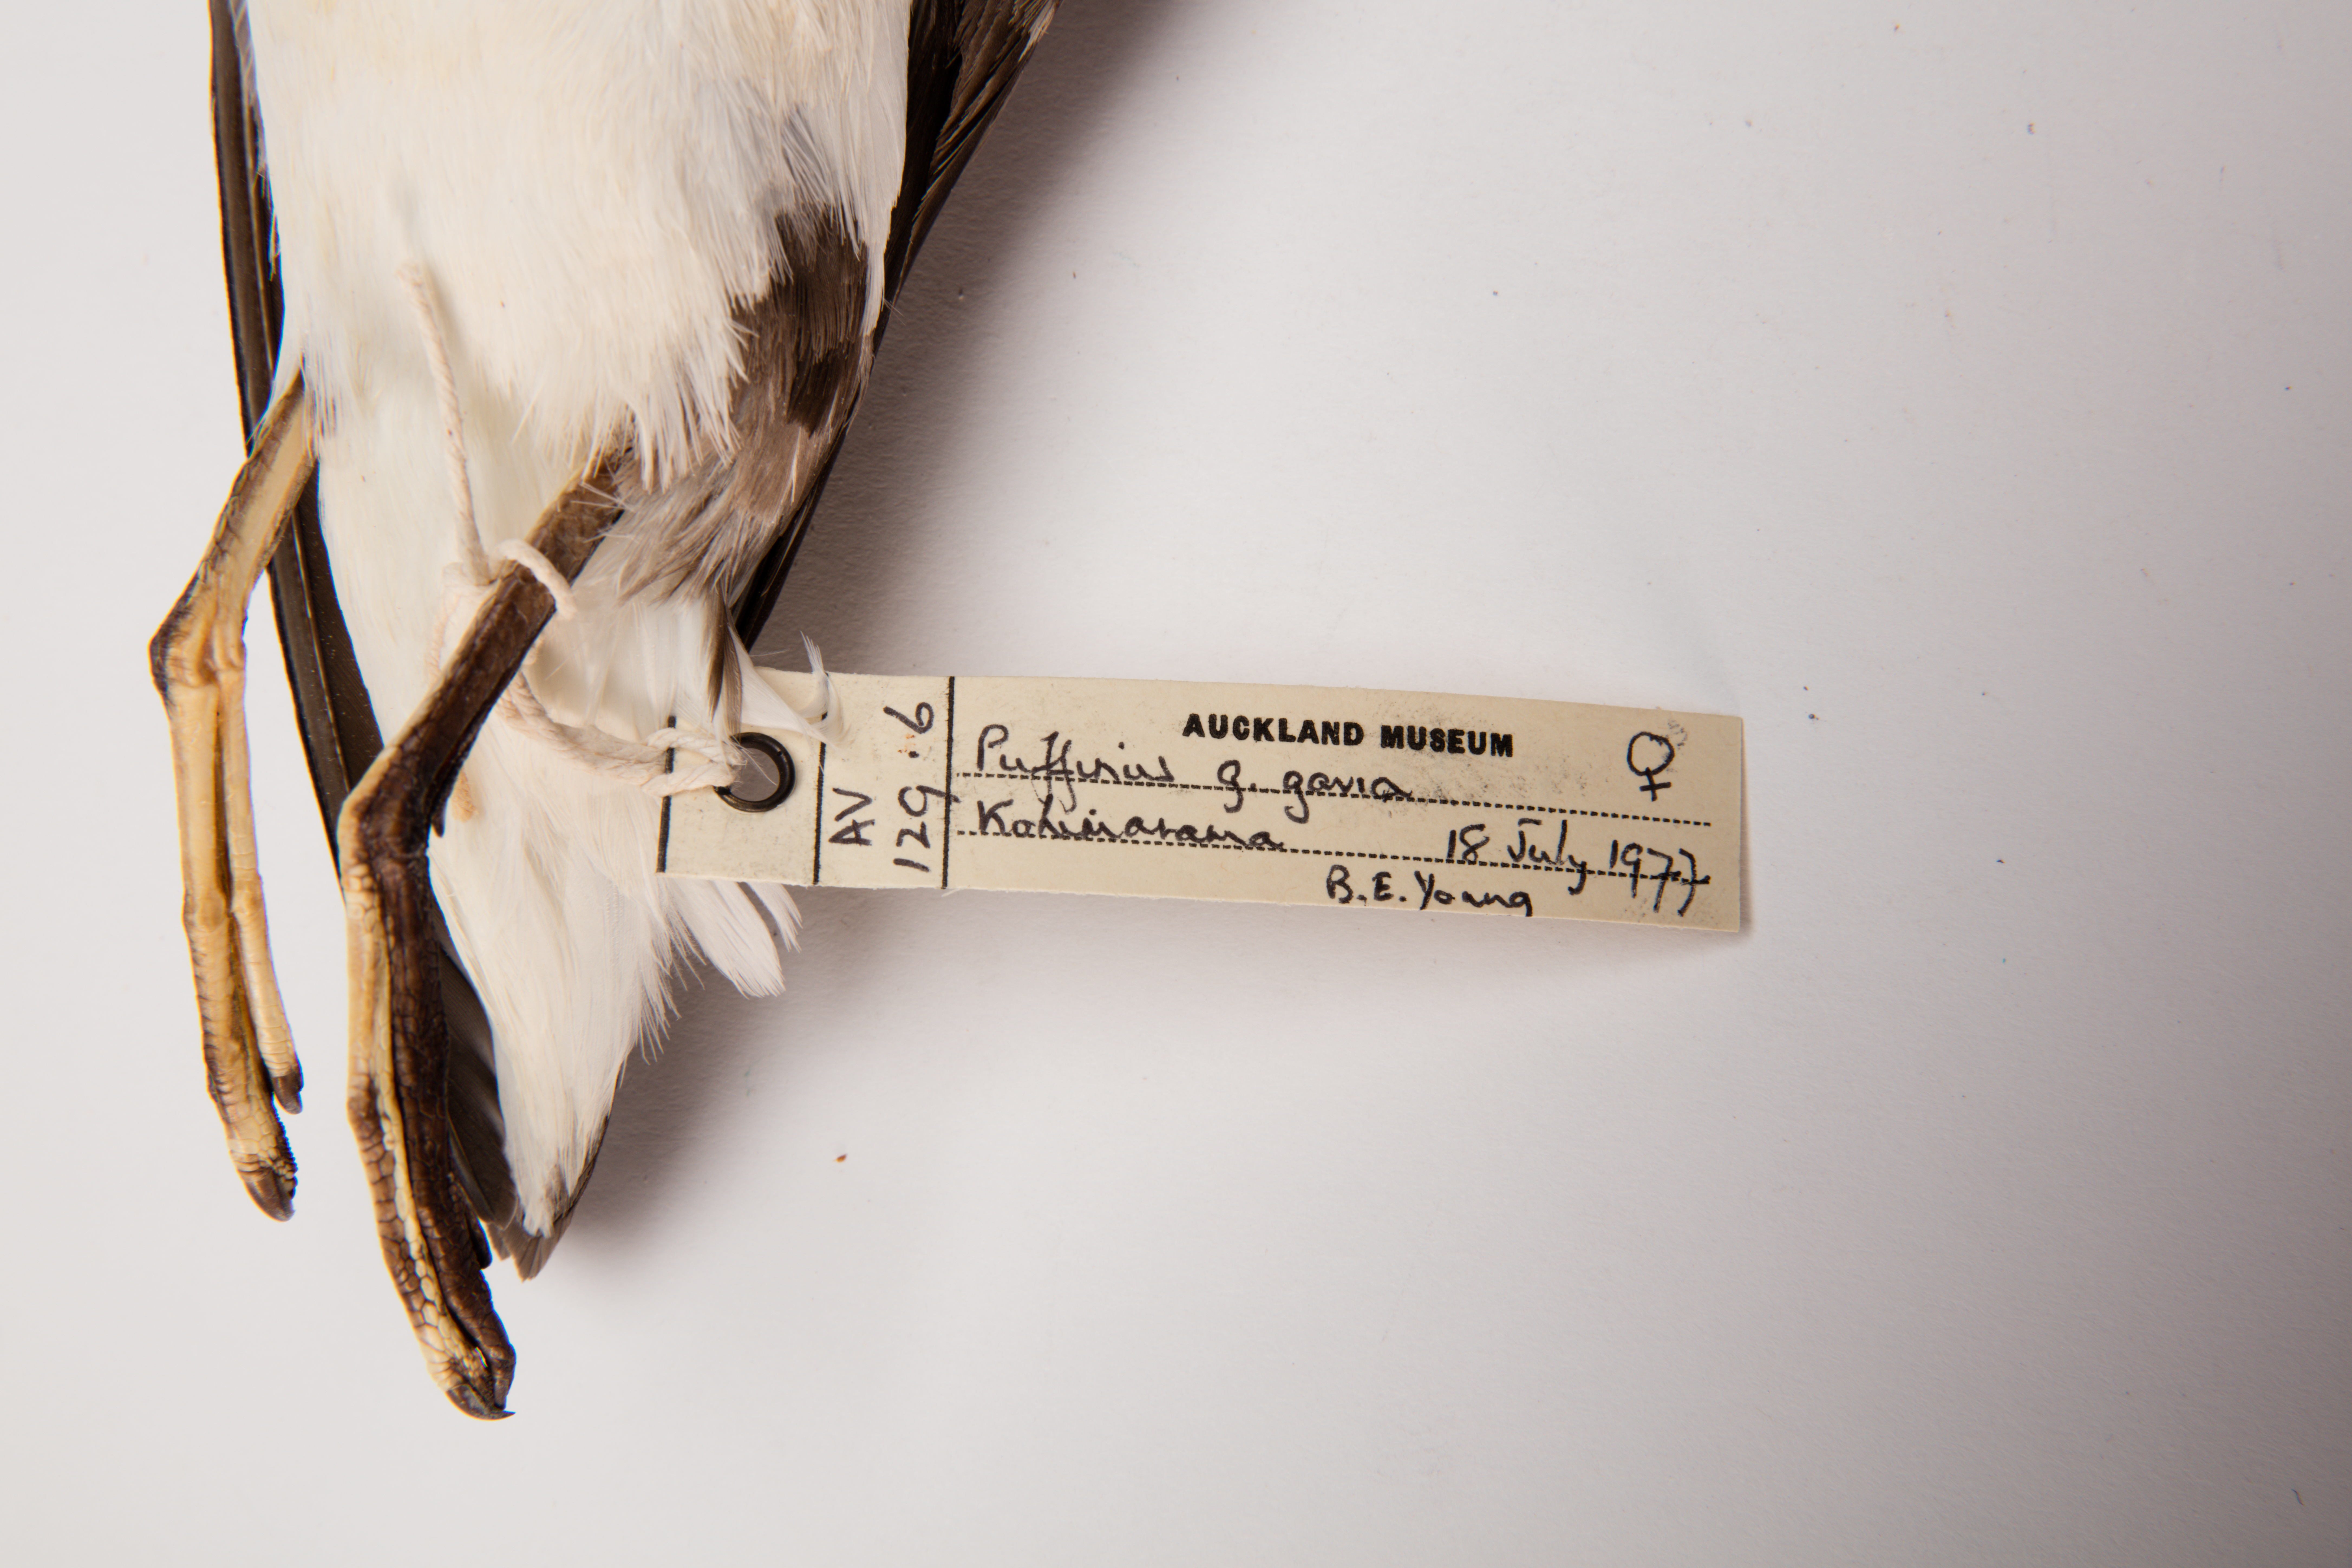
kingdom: Animalia
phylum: Chordata
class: Aves
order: Procellariiformes
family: Procellariidae
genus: Ardenna
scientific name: Ardenna
